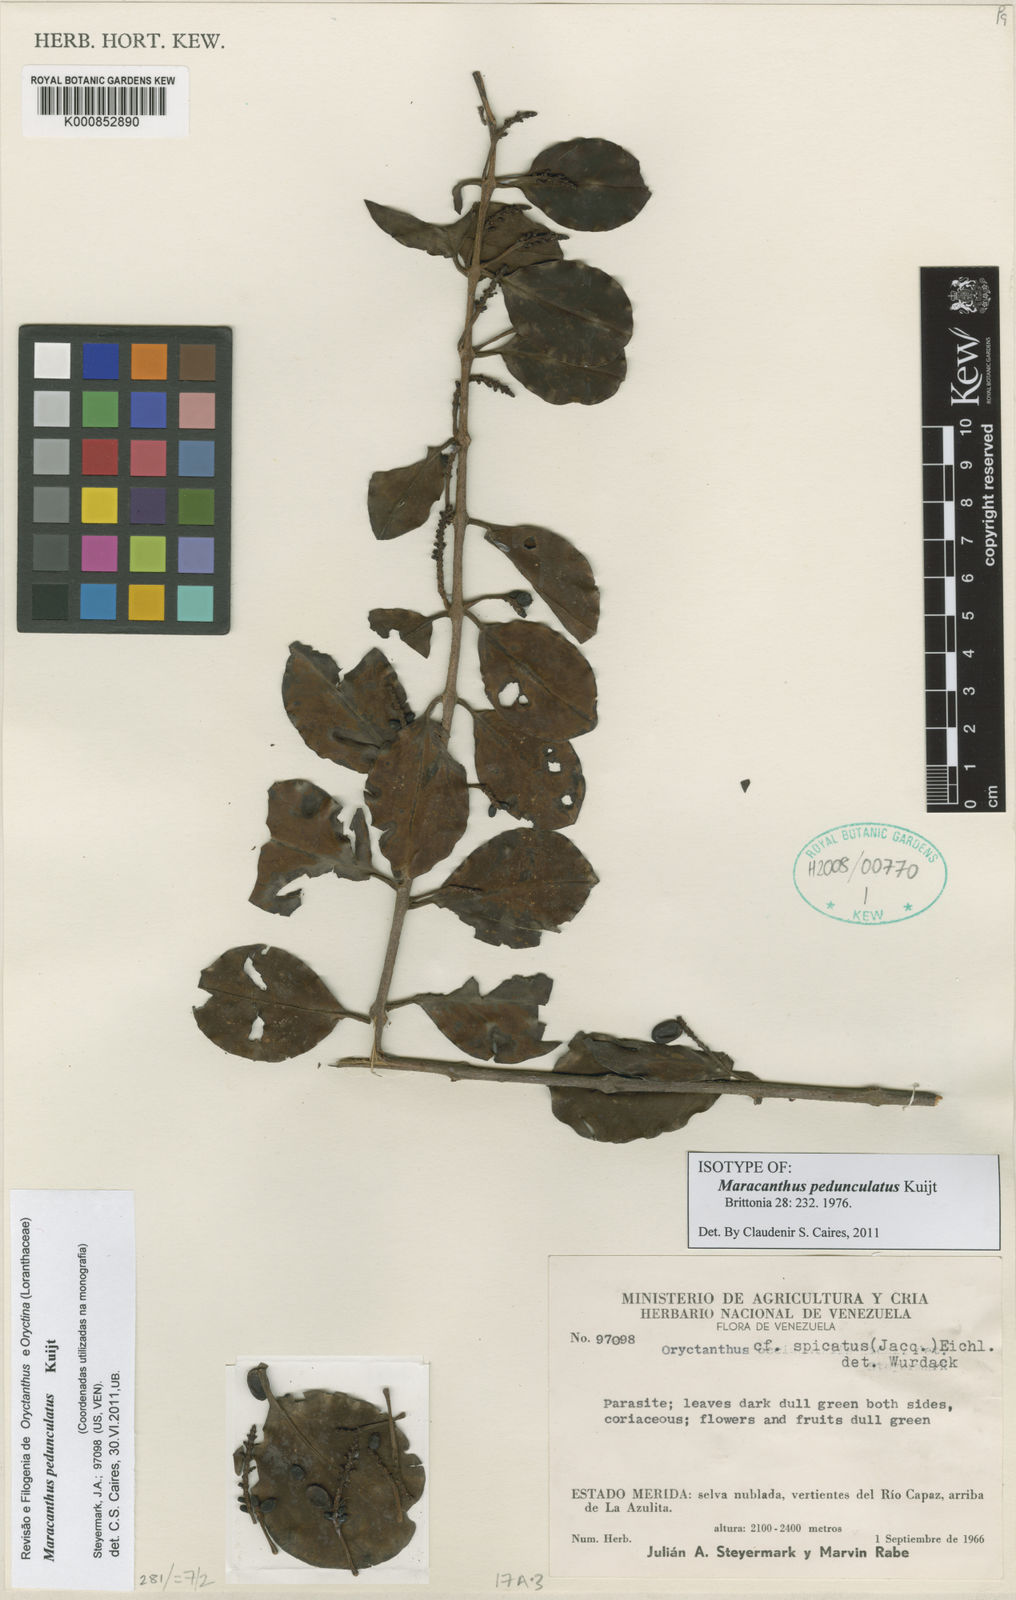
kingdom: Plantae
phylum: Tracheophyta
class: Magnoliopsida
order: Santalales
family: Loranthaceae
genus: Oryctanthus
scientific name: Oryctanthus pedunculatus
